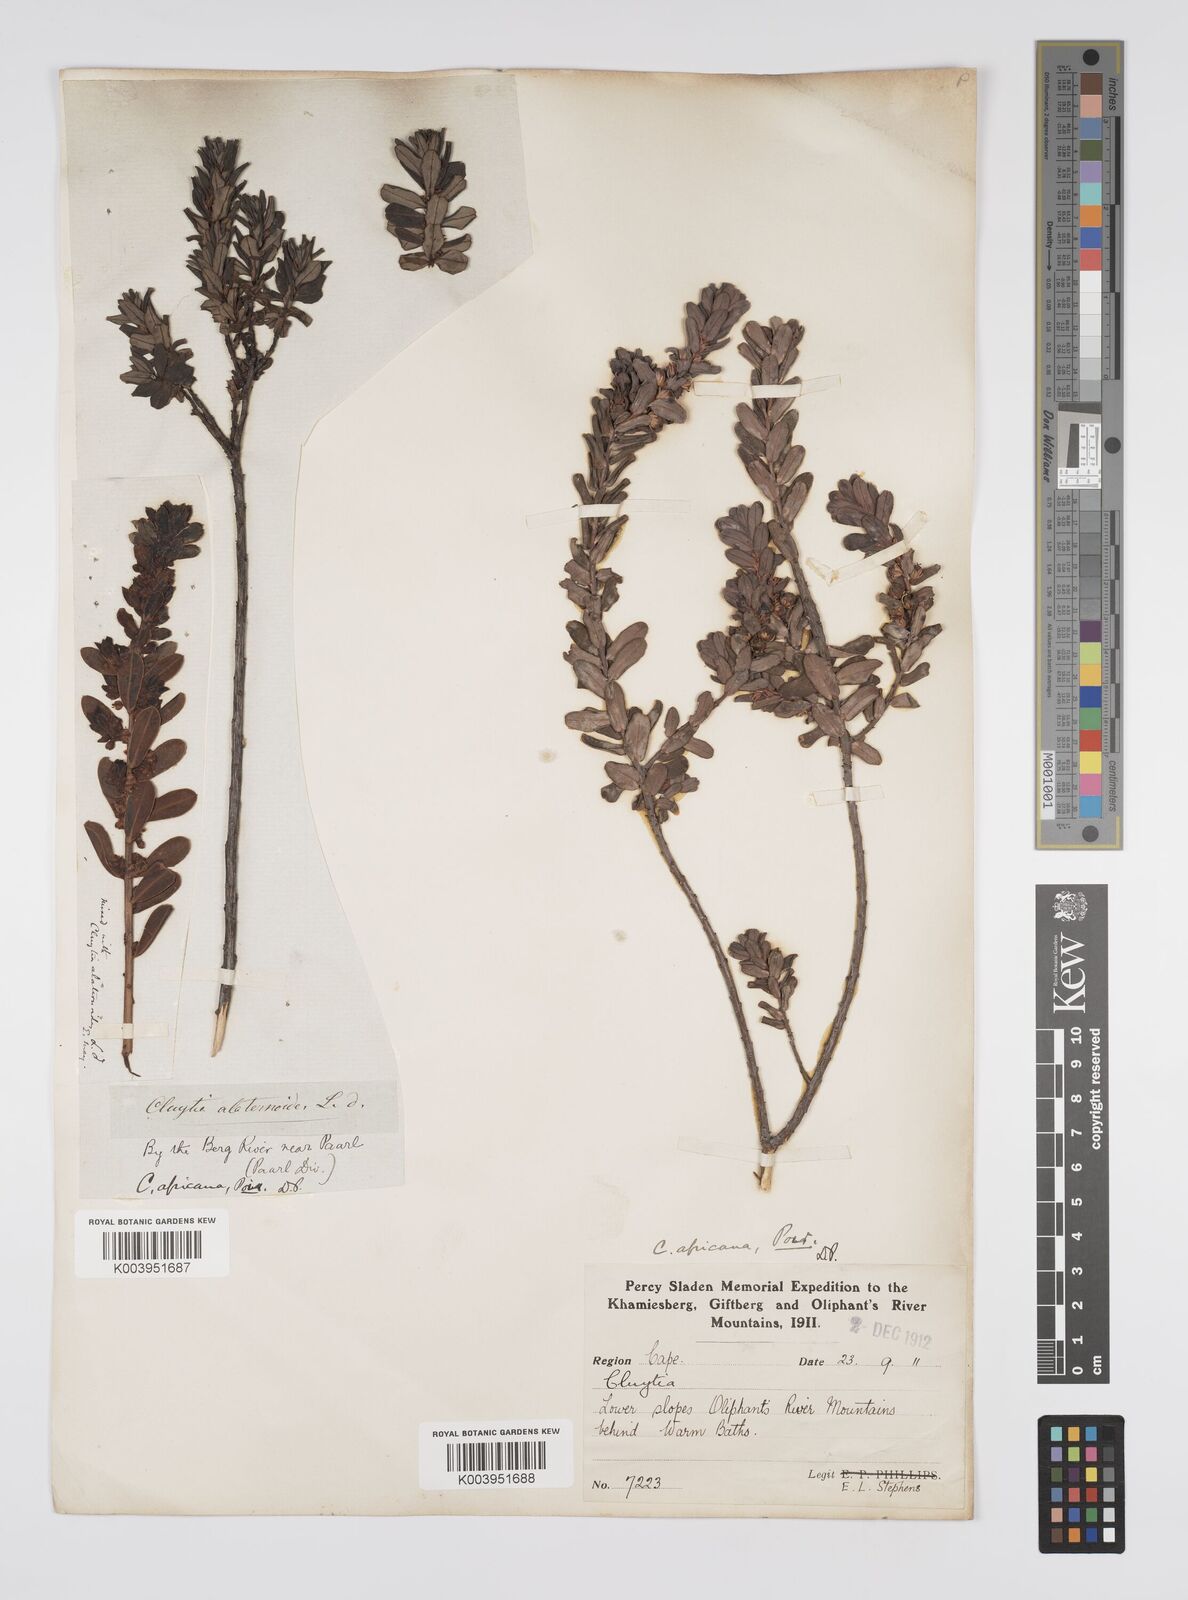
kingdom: Plantae
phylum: Tracheophyta
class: Magnoliopsida
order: Malpighiales
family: Peraceae
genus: Clutia
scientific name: Clutia africana
